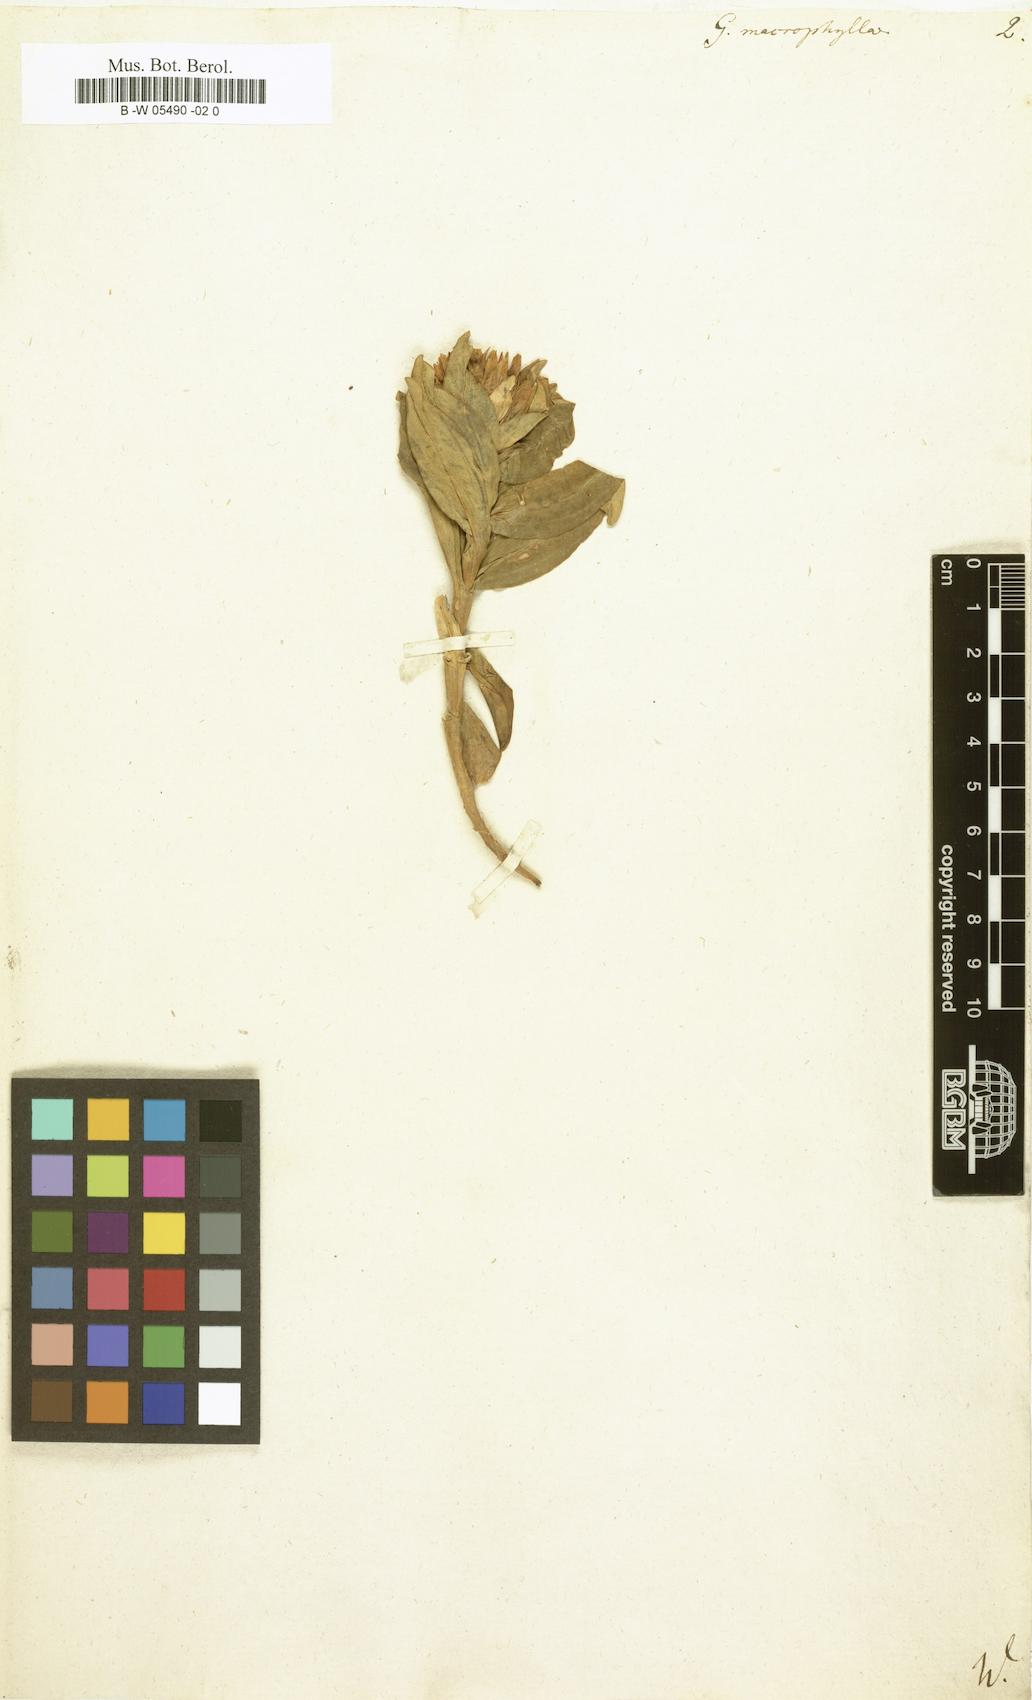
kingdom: Plantae
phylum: Tracheophyta
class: Magnoliopsida
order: Gentianales
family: Gentianaceae
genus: Gentiana
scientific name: Gentiana macrophylla
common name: Large-leaf gentian
